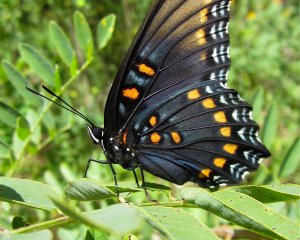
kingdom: Animalia
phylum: Arthropoda
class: Insecta
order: Lepidoptera
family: Nymphalidae
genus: Limenitis
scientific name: Limenitis astyanax
